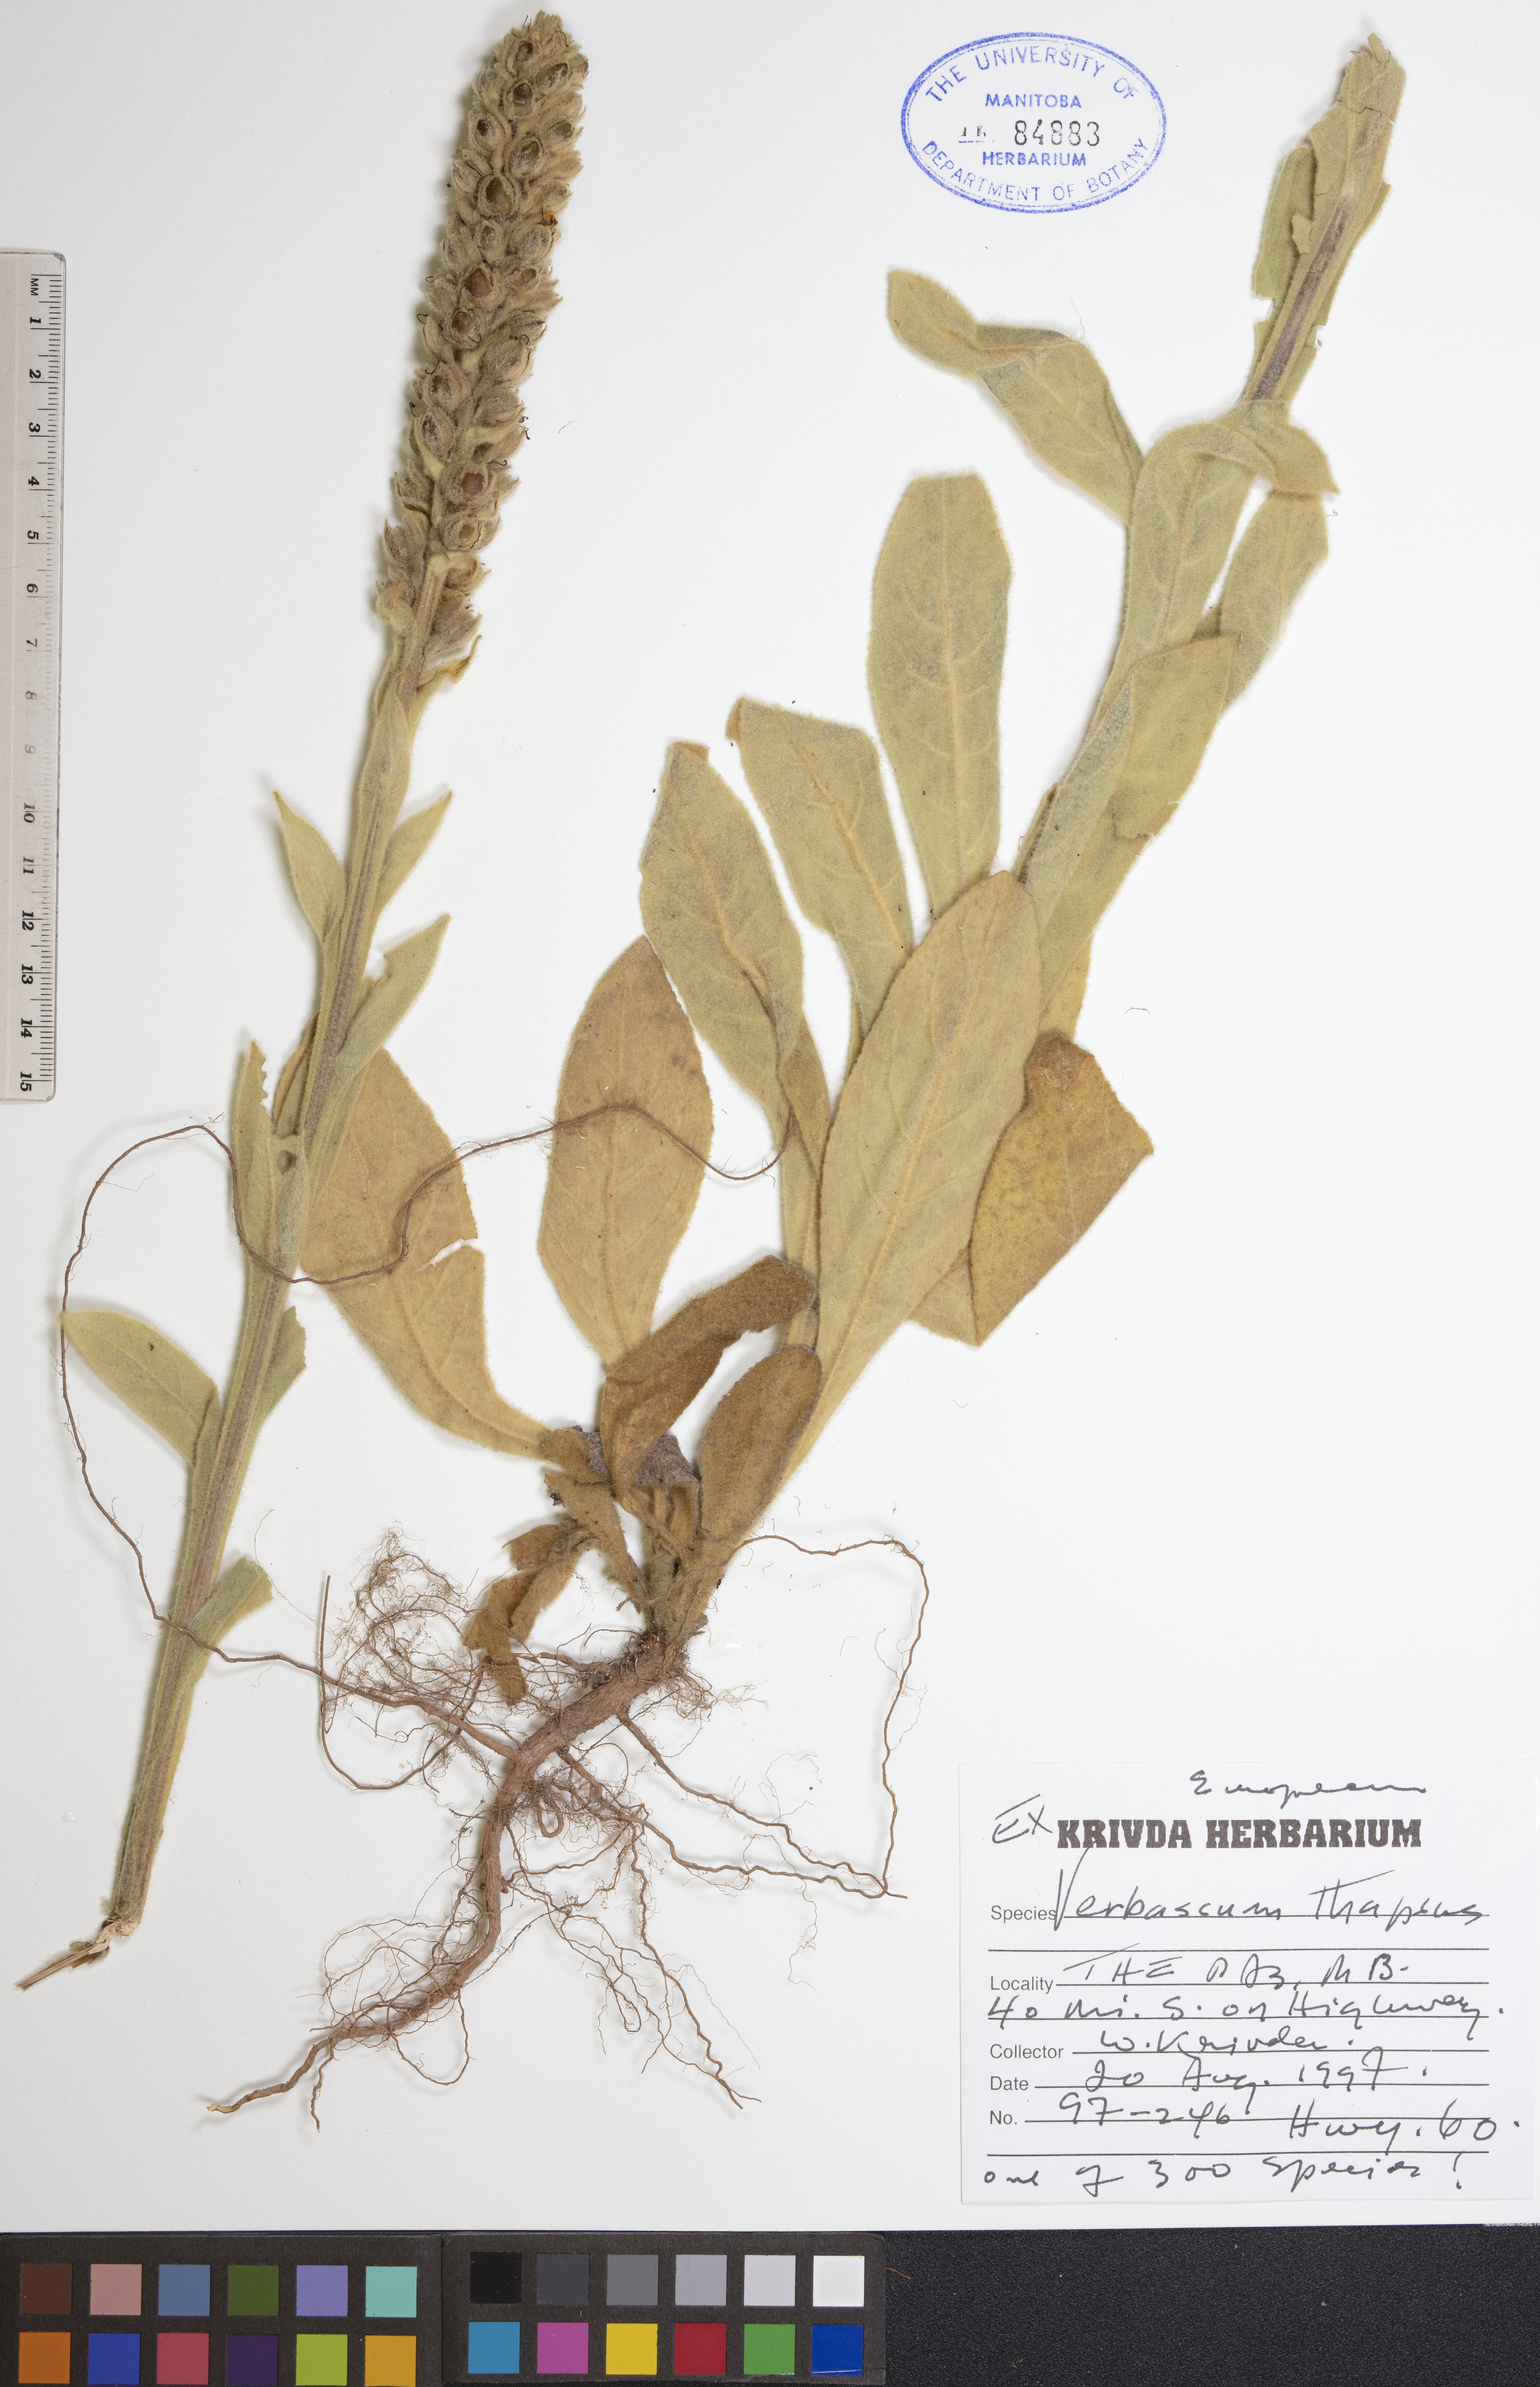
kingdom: Plantae
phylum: Tracheophyta
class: Magnoliopsida
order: Lamiales
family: Scrophulariaceae
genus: Verbascum
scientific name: Verbascum thapsus
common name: Common mullein
